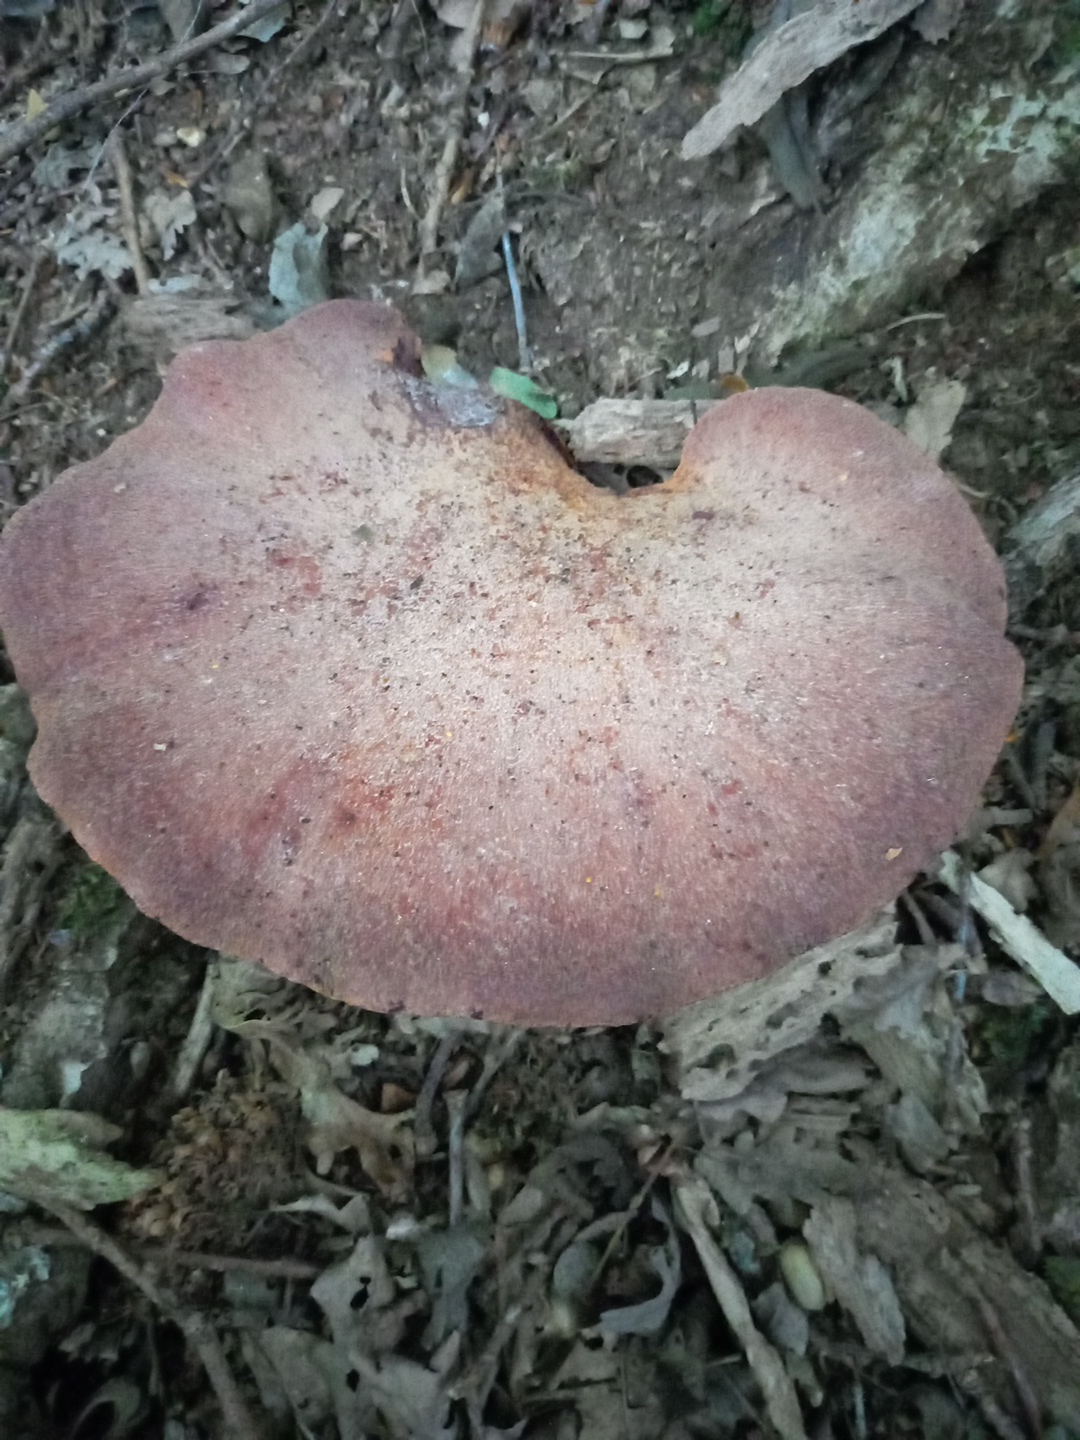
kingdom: Fungi
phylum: Basidiomycota
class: Agaricomycetes
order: Agaricales
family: Fistulinaceae
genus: Fistulina
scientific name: Fistulina hepatica
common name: oksetunge
